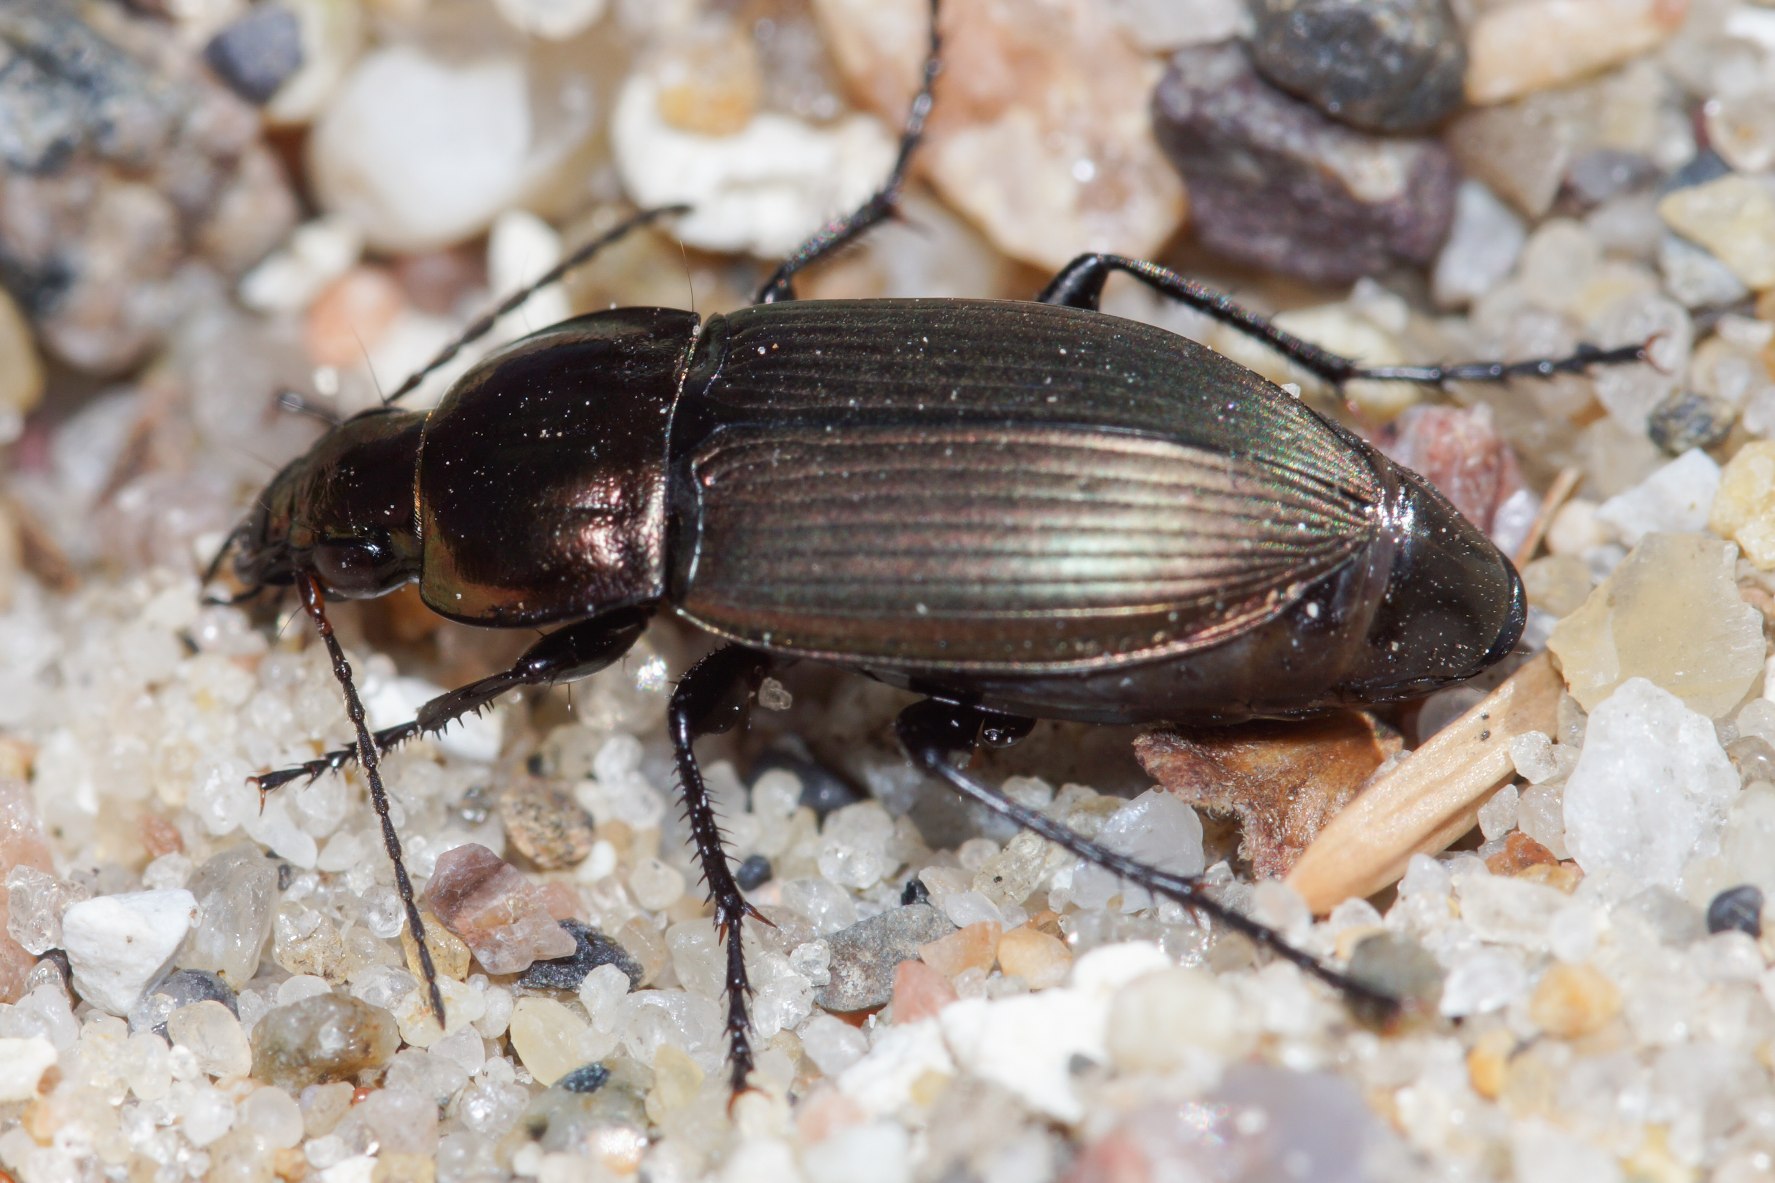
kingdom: Animalia
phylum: Arthropoda
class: Insecta
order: Coleoptera
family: Carabidae
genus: Poecilus
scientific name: Poecilus cupreus
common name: Bred metaljordløber
